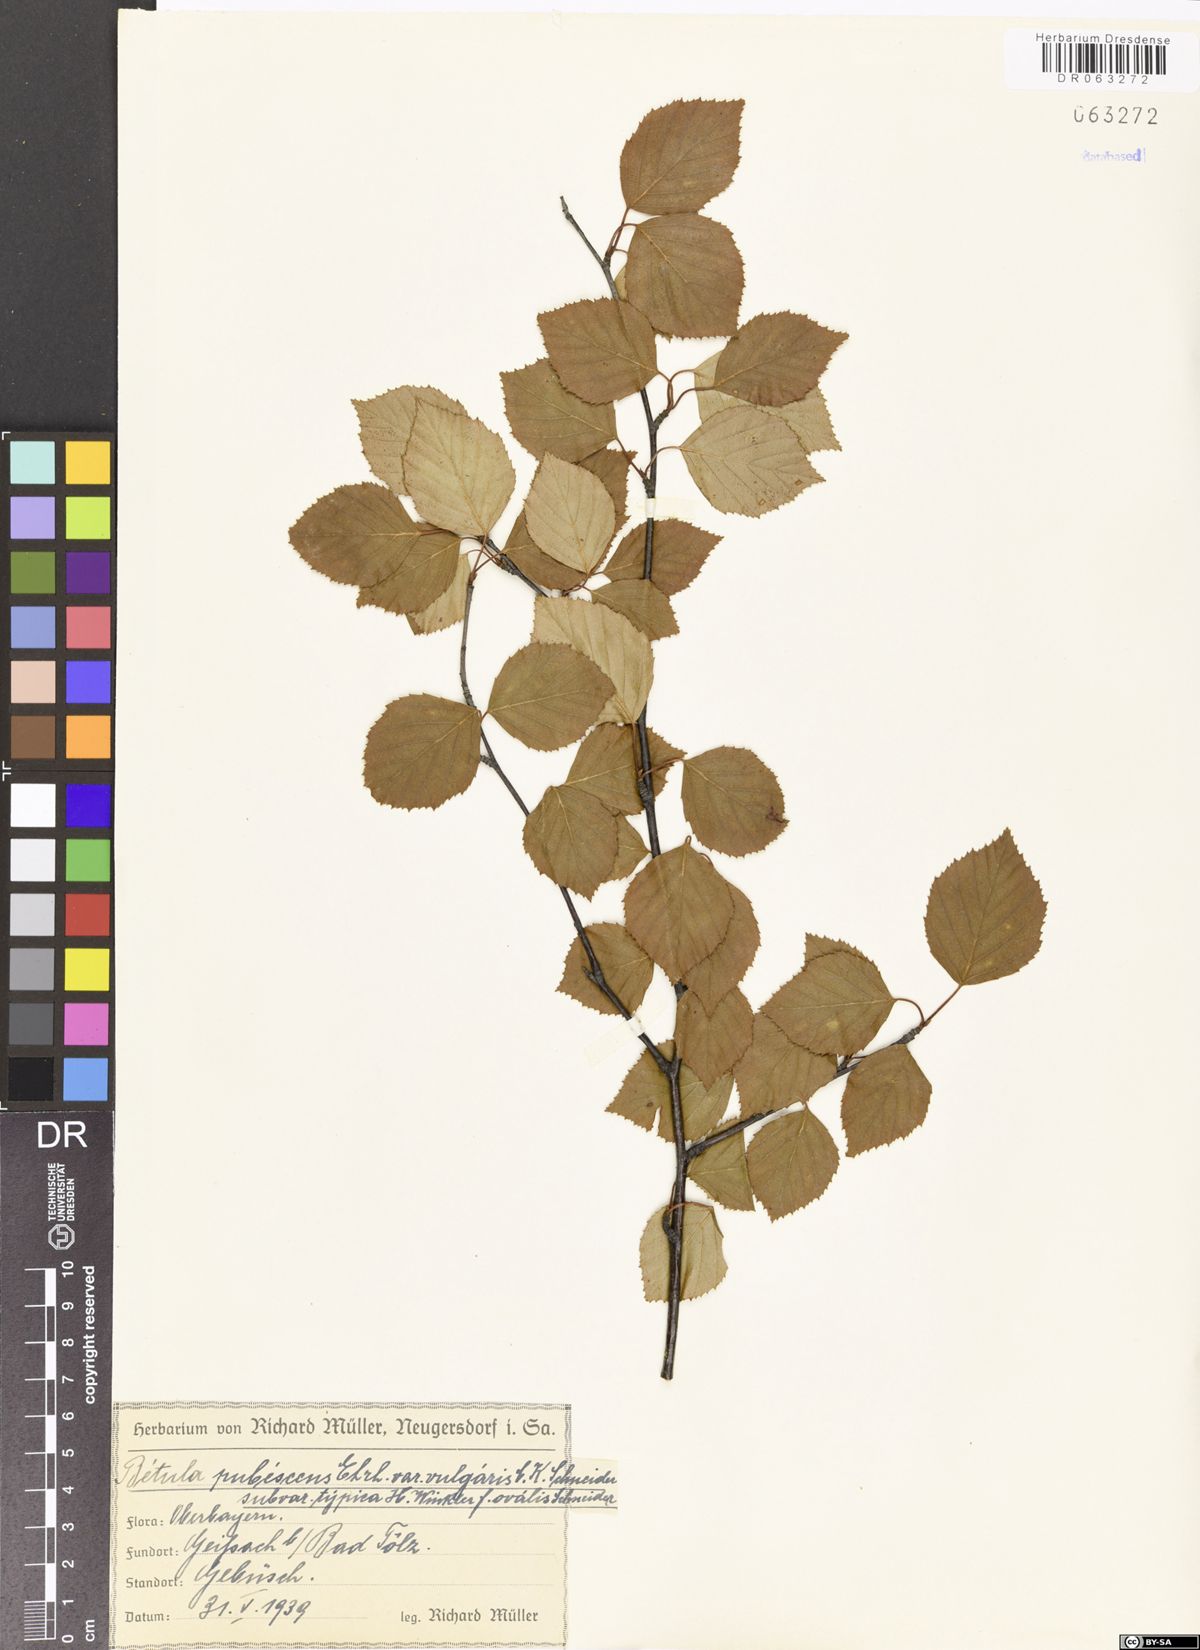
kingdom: Plantae
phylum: Tracheophyta
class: Magnoliopsida
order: Fagales
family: Betulaceae
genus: Betula
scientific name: Betula pubescens
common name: Downy birch
